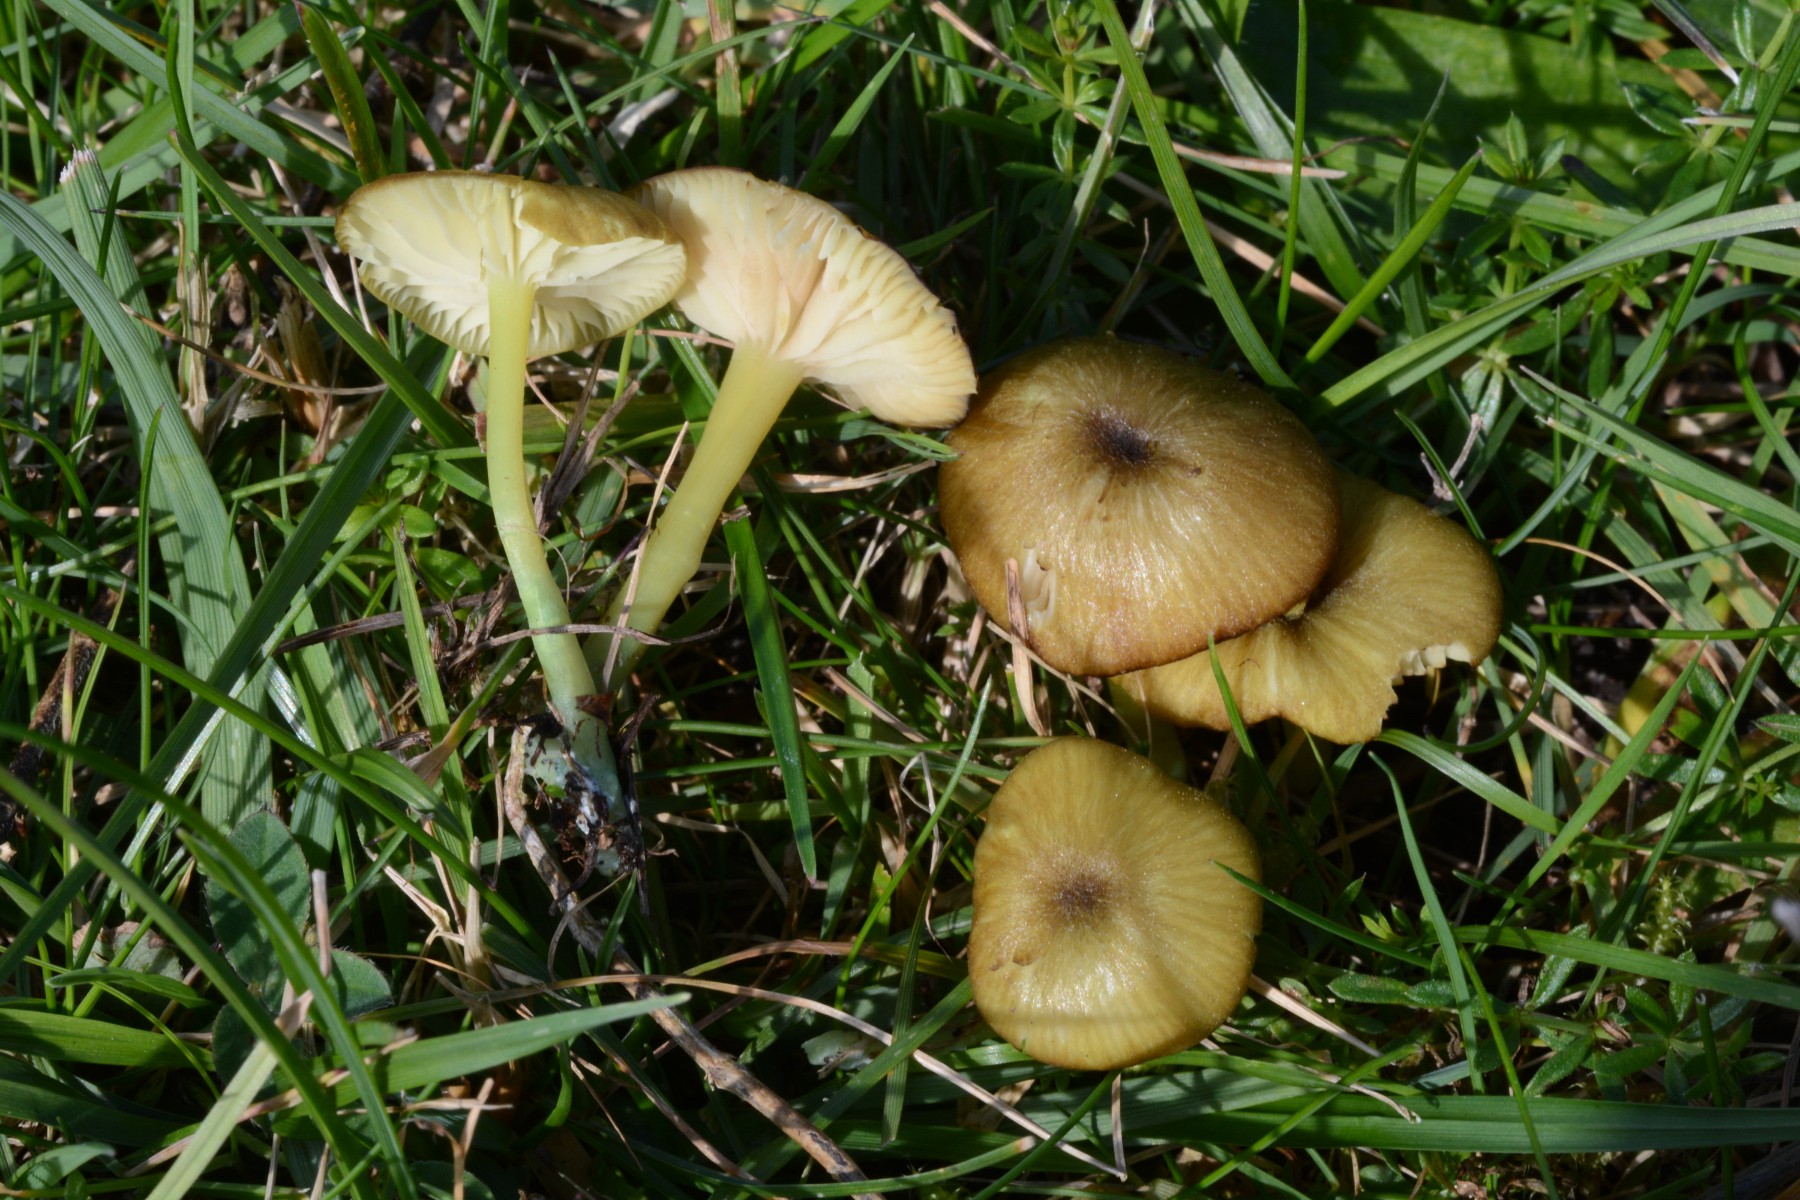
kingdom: Fungi
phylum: Basidiomycota
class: Agaricomycetes
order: Agaricales
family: Entolomataceae
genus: Entoloma
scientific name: Entoloma incanum
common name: grøngul rødblad
